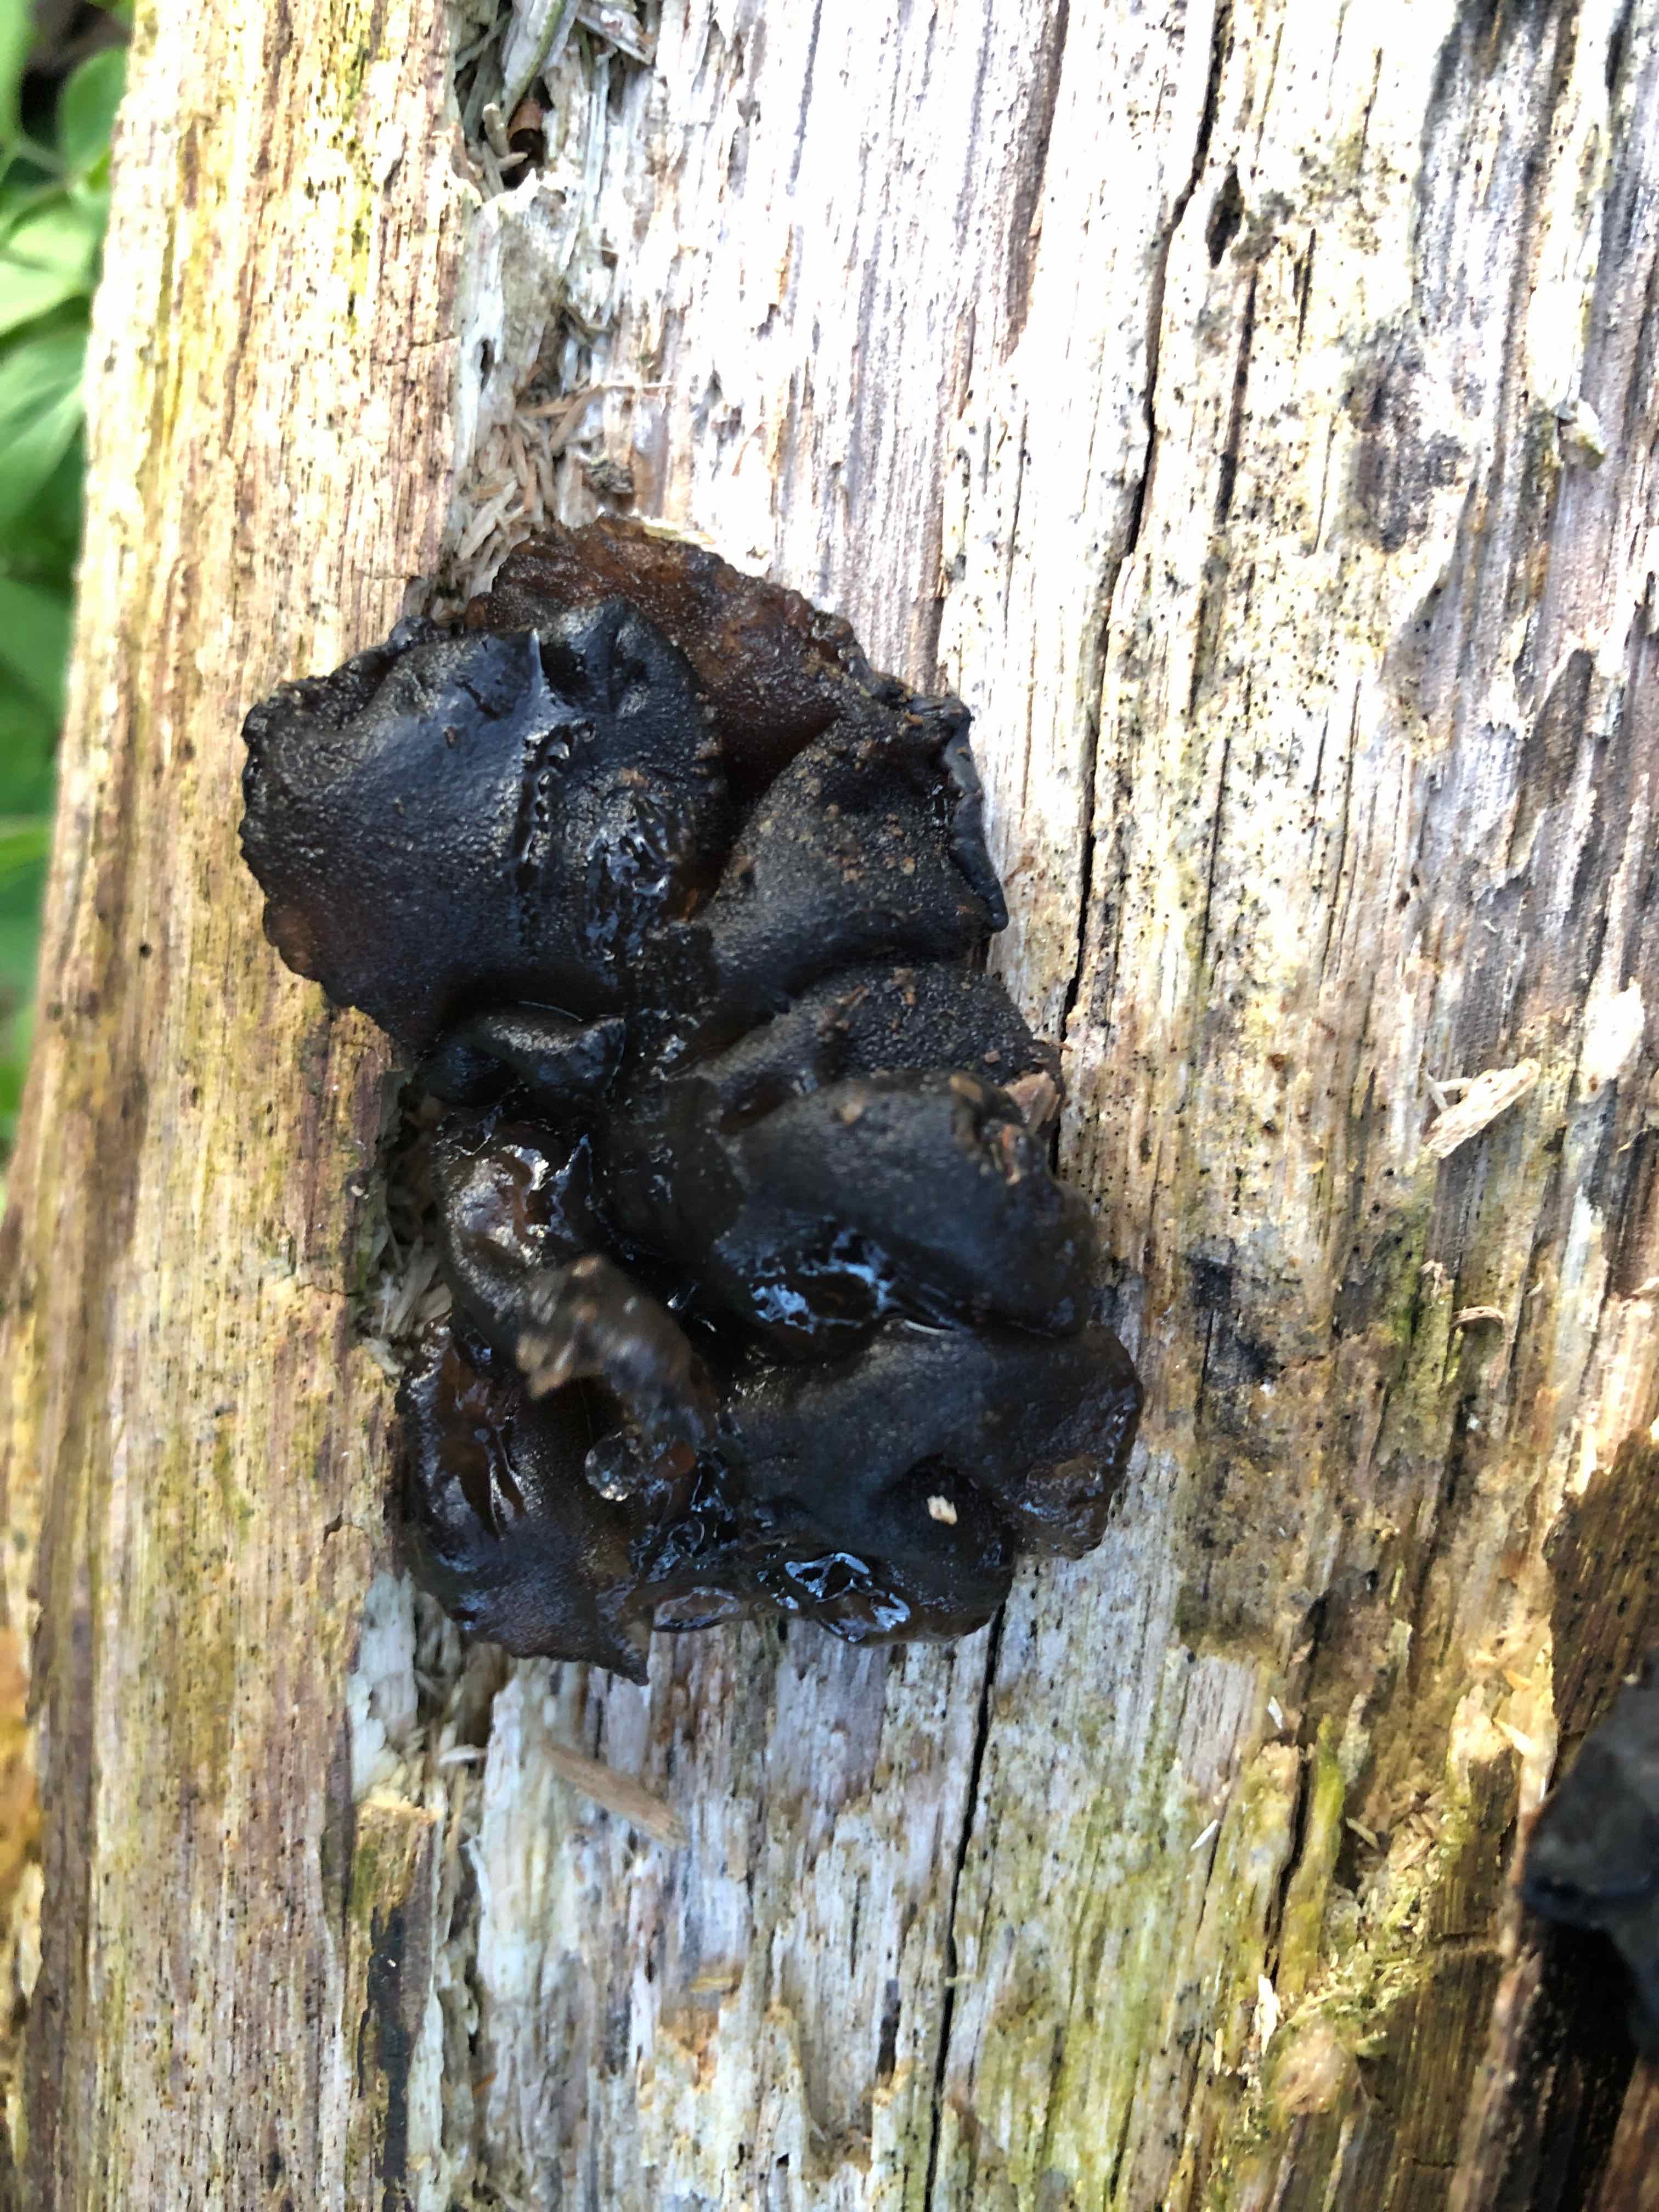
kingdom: Fungi
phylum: Basidiomycota
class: Agaricomycetes
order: Auriculariales
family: Auriculariaceae
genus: Exidia
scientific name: Exidia glandulosa
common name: ege-bævretop
